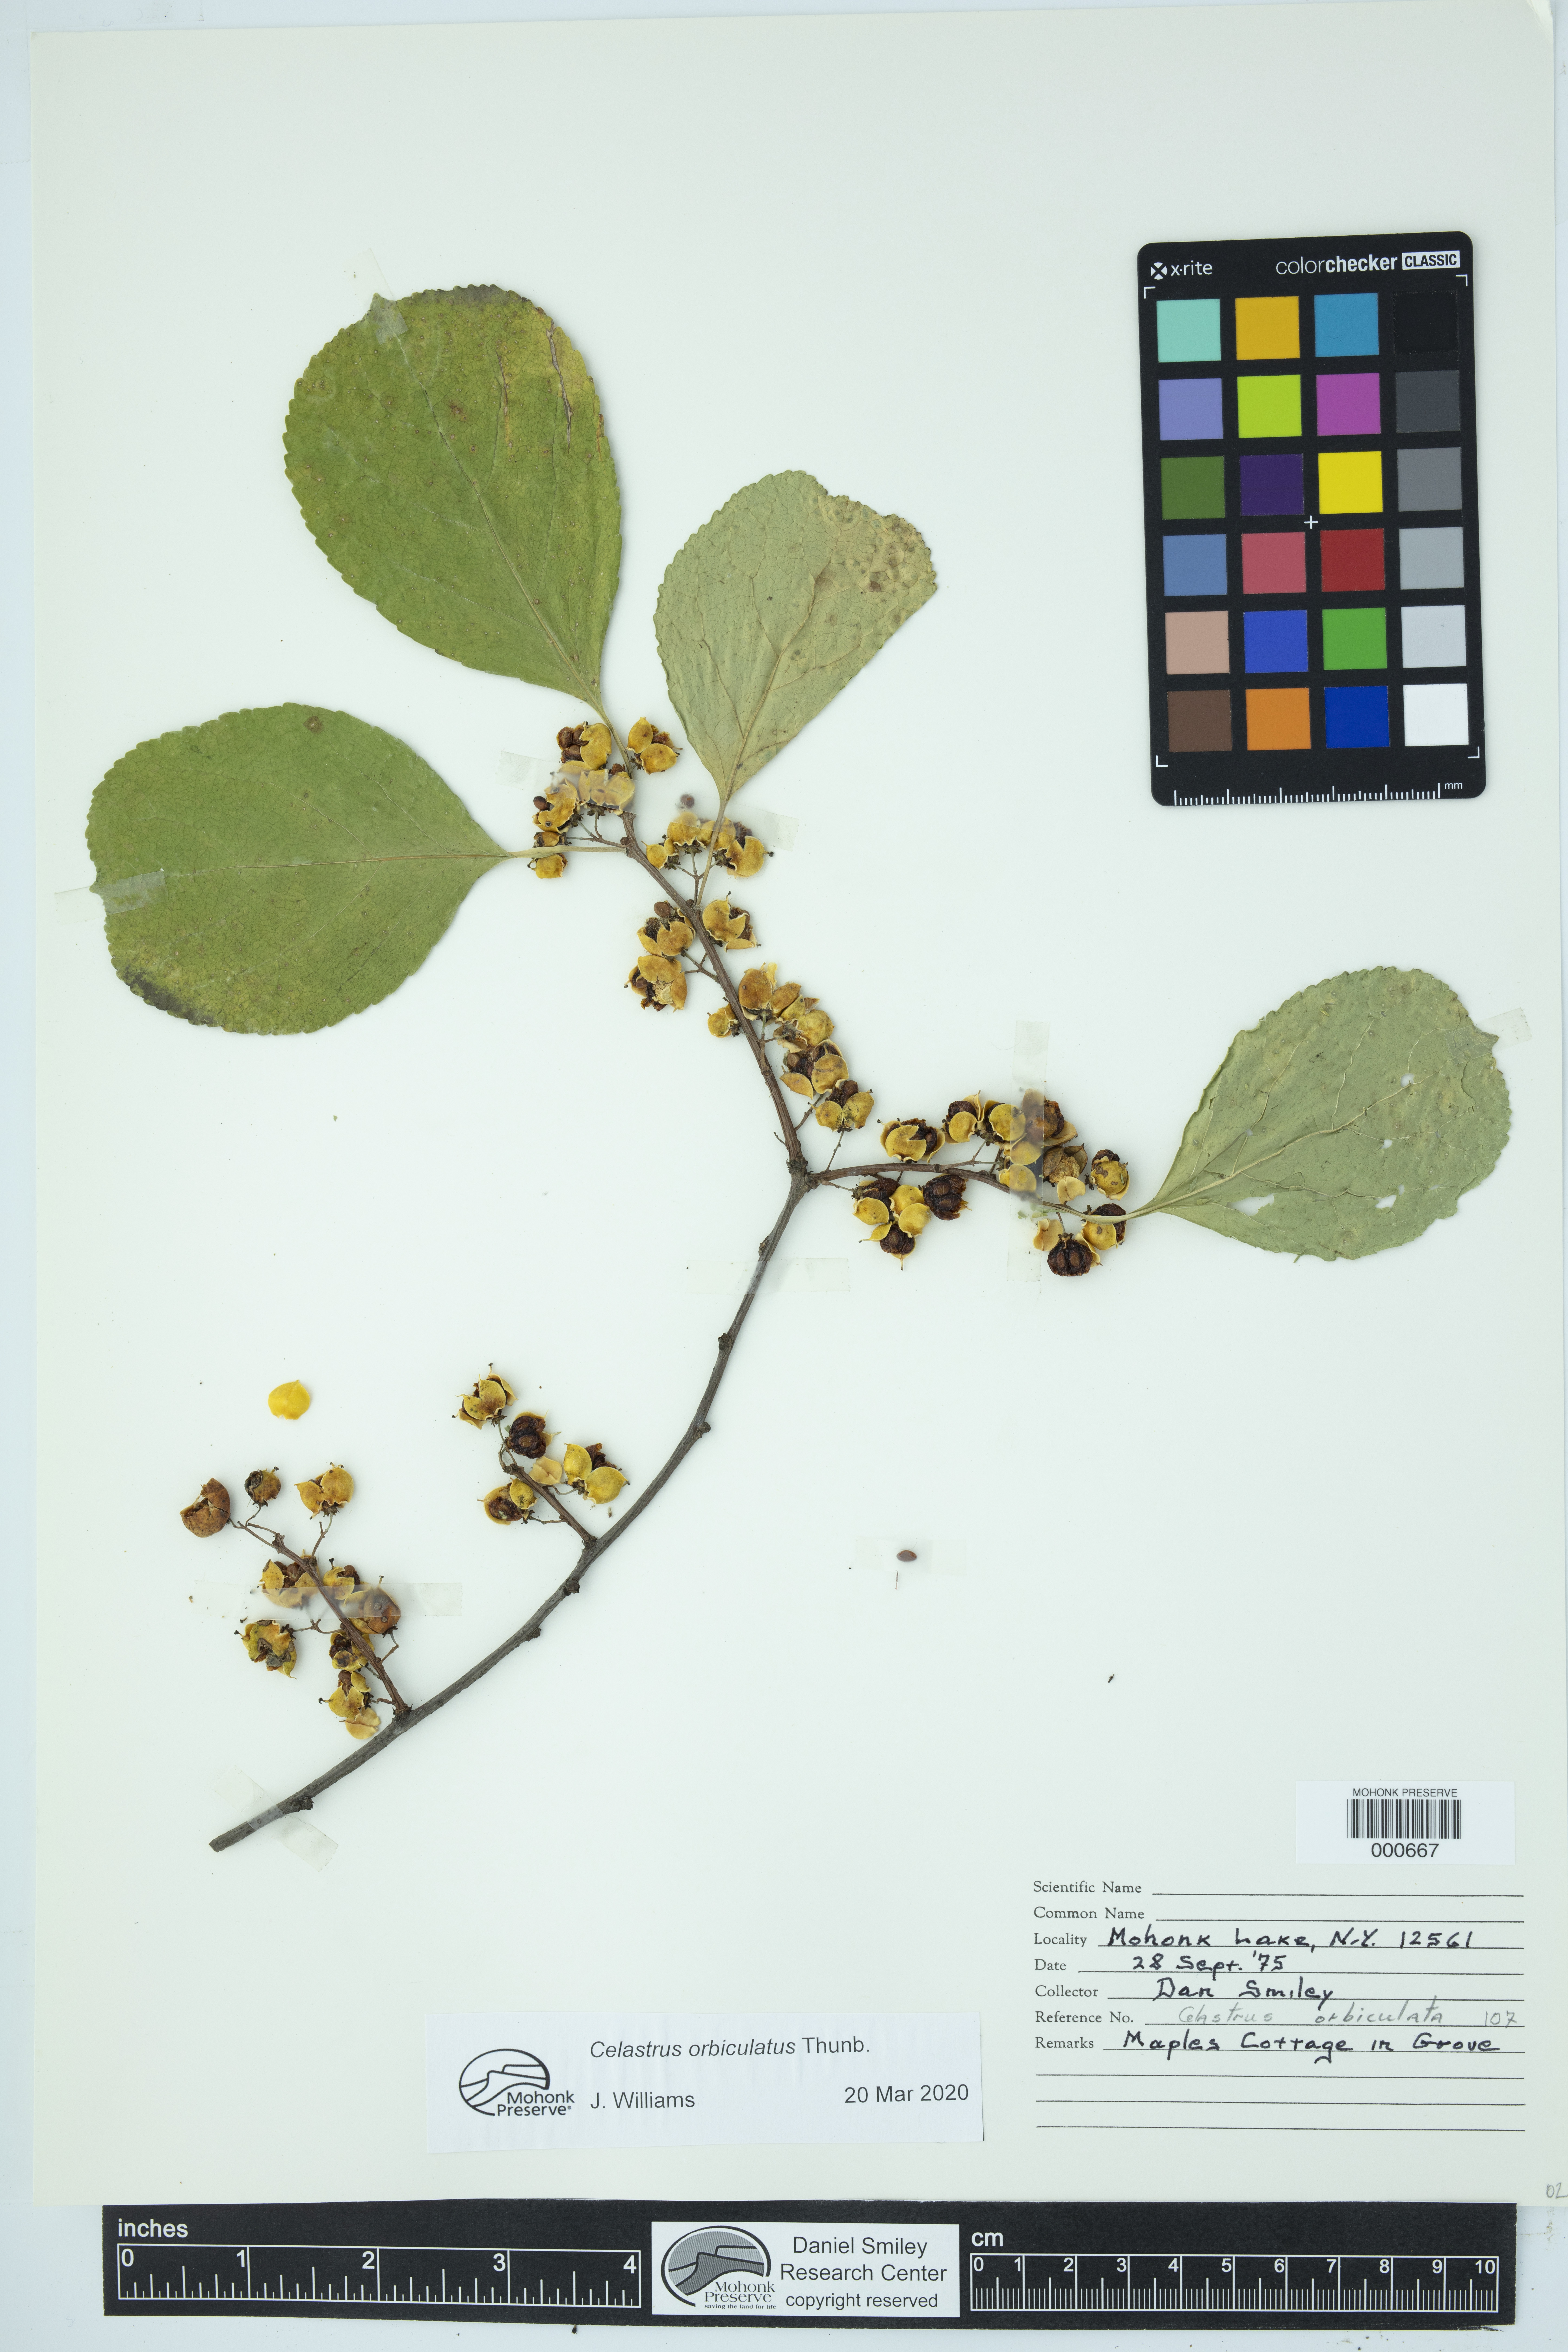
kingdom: Plantae
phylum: Tracheophyta
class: Magnoliopsida
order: Celastrales
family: Celastraceae
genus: Celastrus
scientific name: Celastrus orbiculatus
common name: Oriental bittersweet
